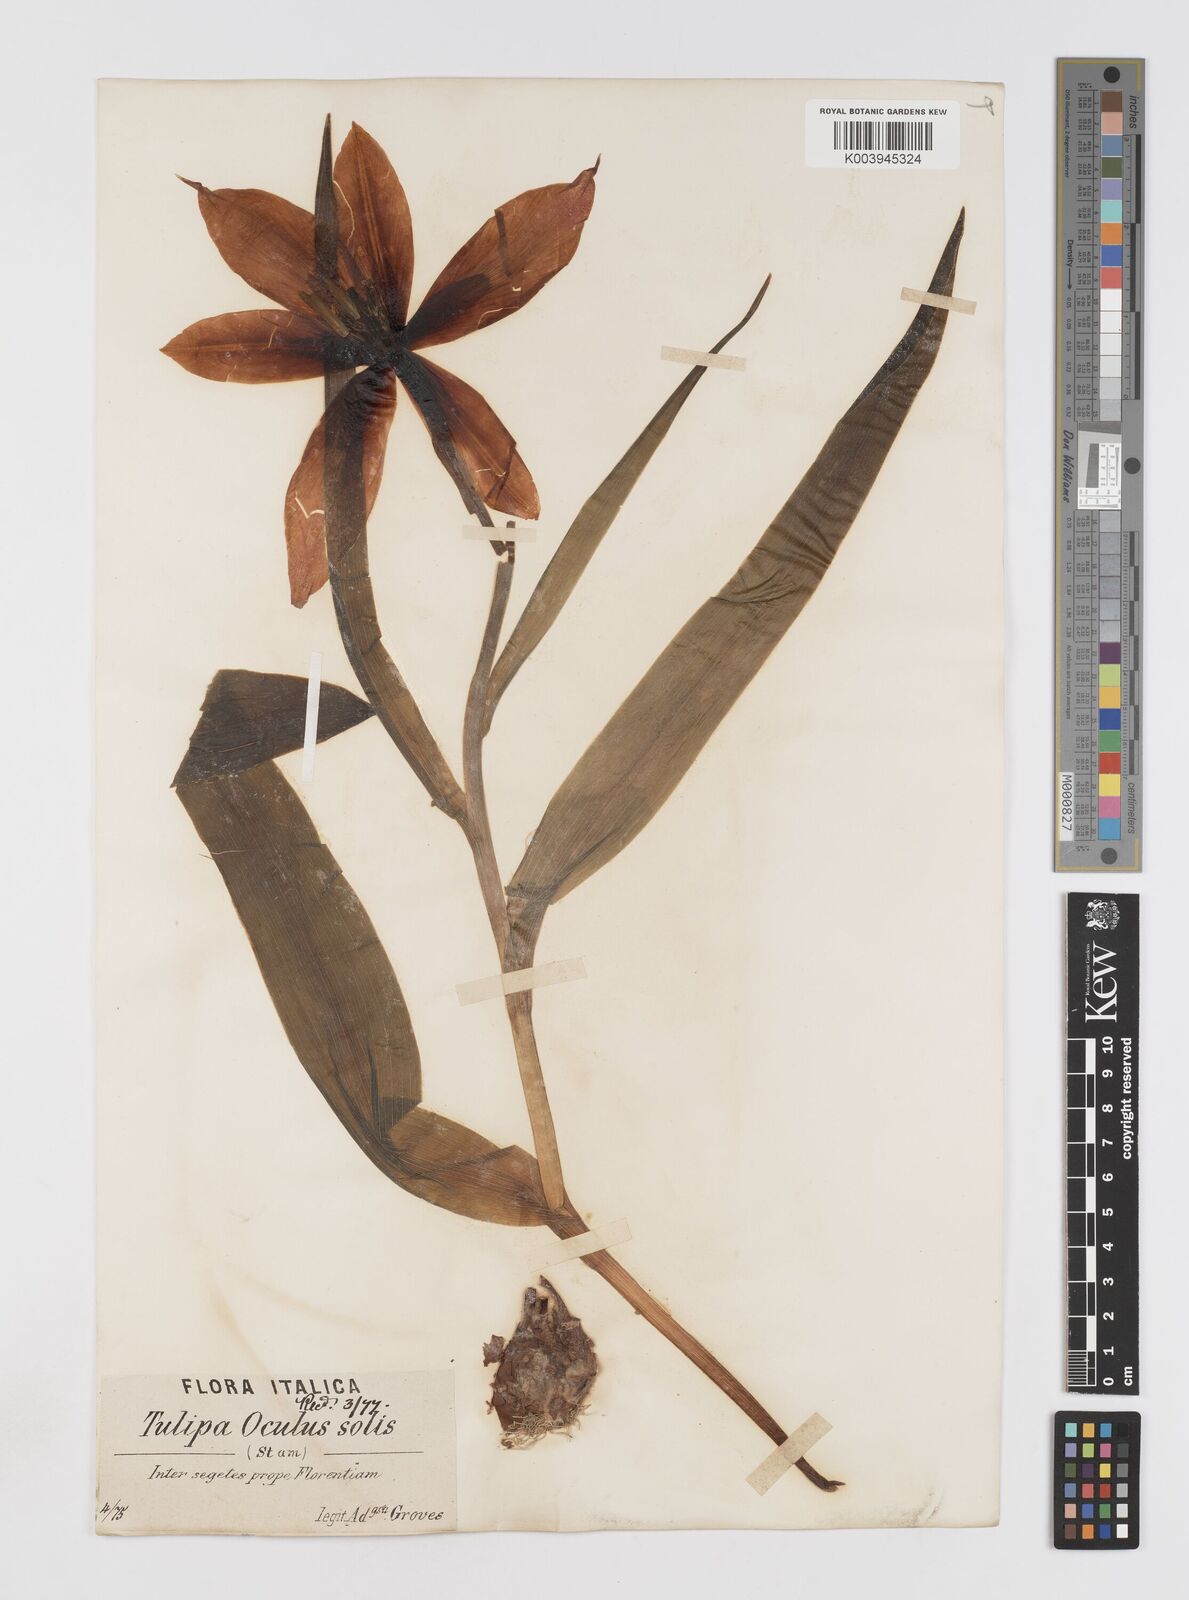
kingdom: Plantae
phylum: Tracheophyta
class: Liliopsida
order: Liliales
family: Liliaceae
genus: Tulipa
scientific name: Tulipa agenensis
